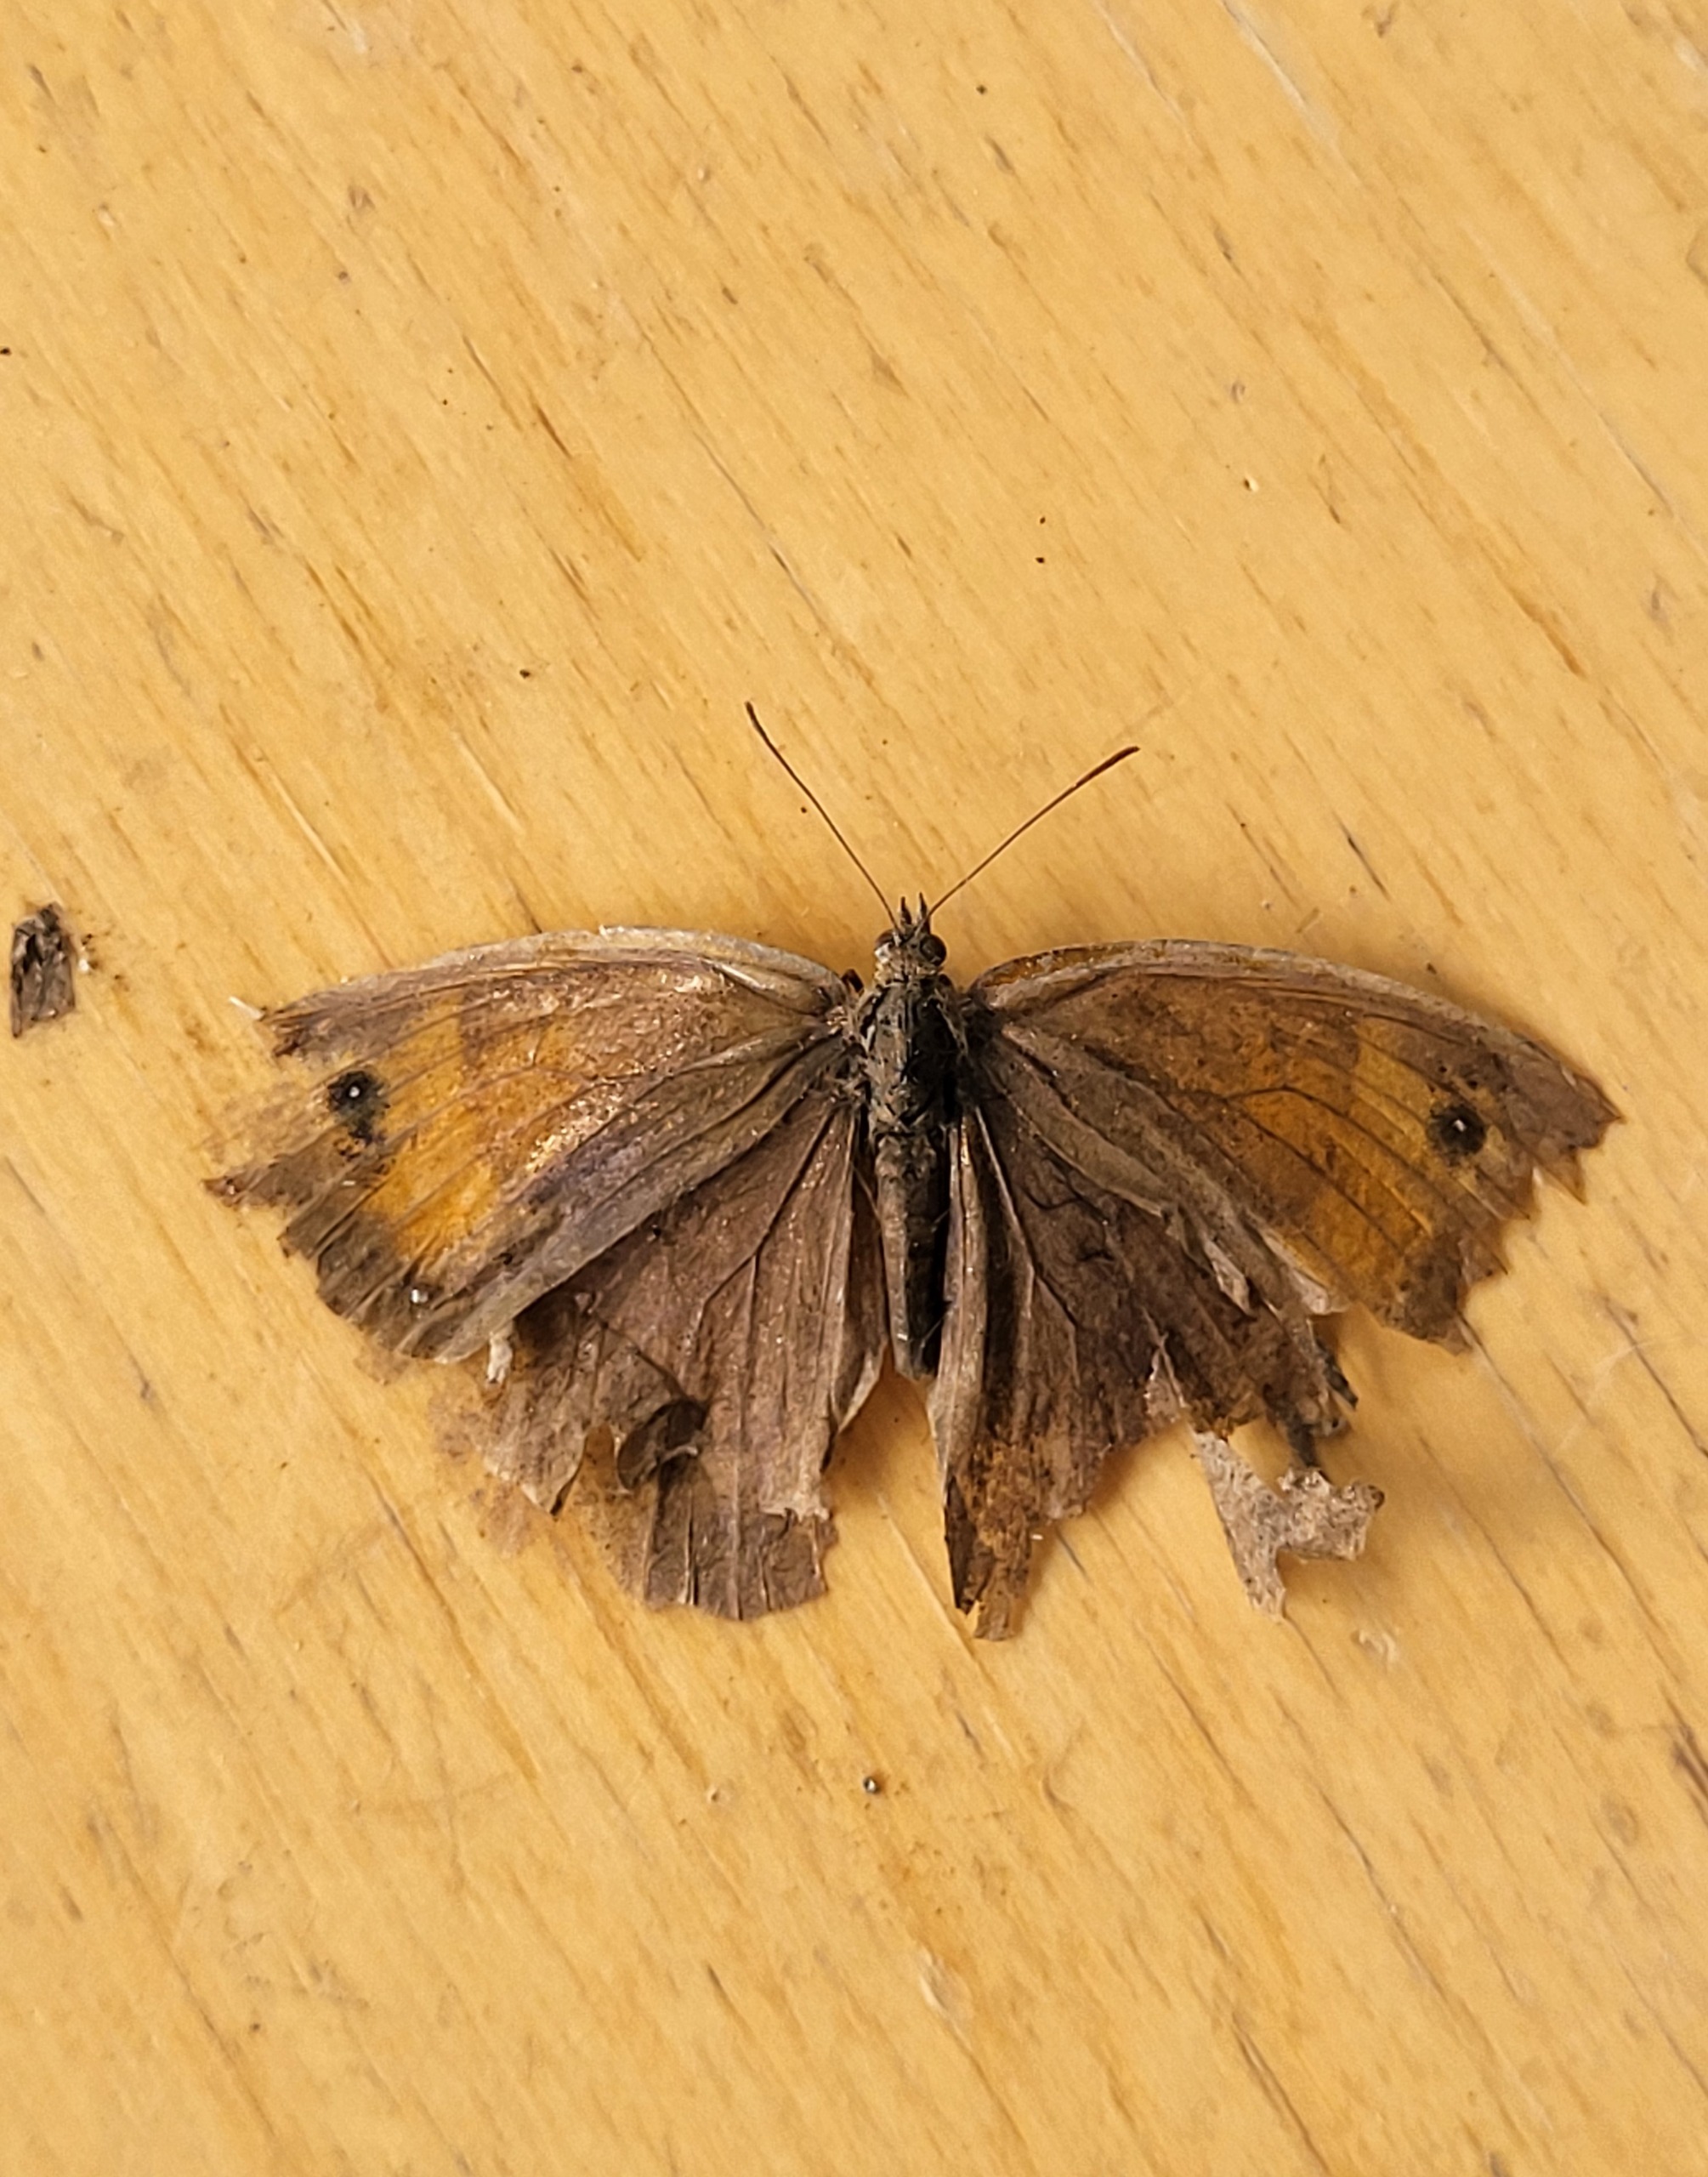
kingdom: Animalia
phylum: Arthropoda
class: Insecta
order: Lepidoptera
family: Nymphalidae
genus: Maniola
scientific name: Maniola jurtina
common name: Græsrandøje
